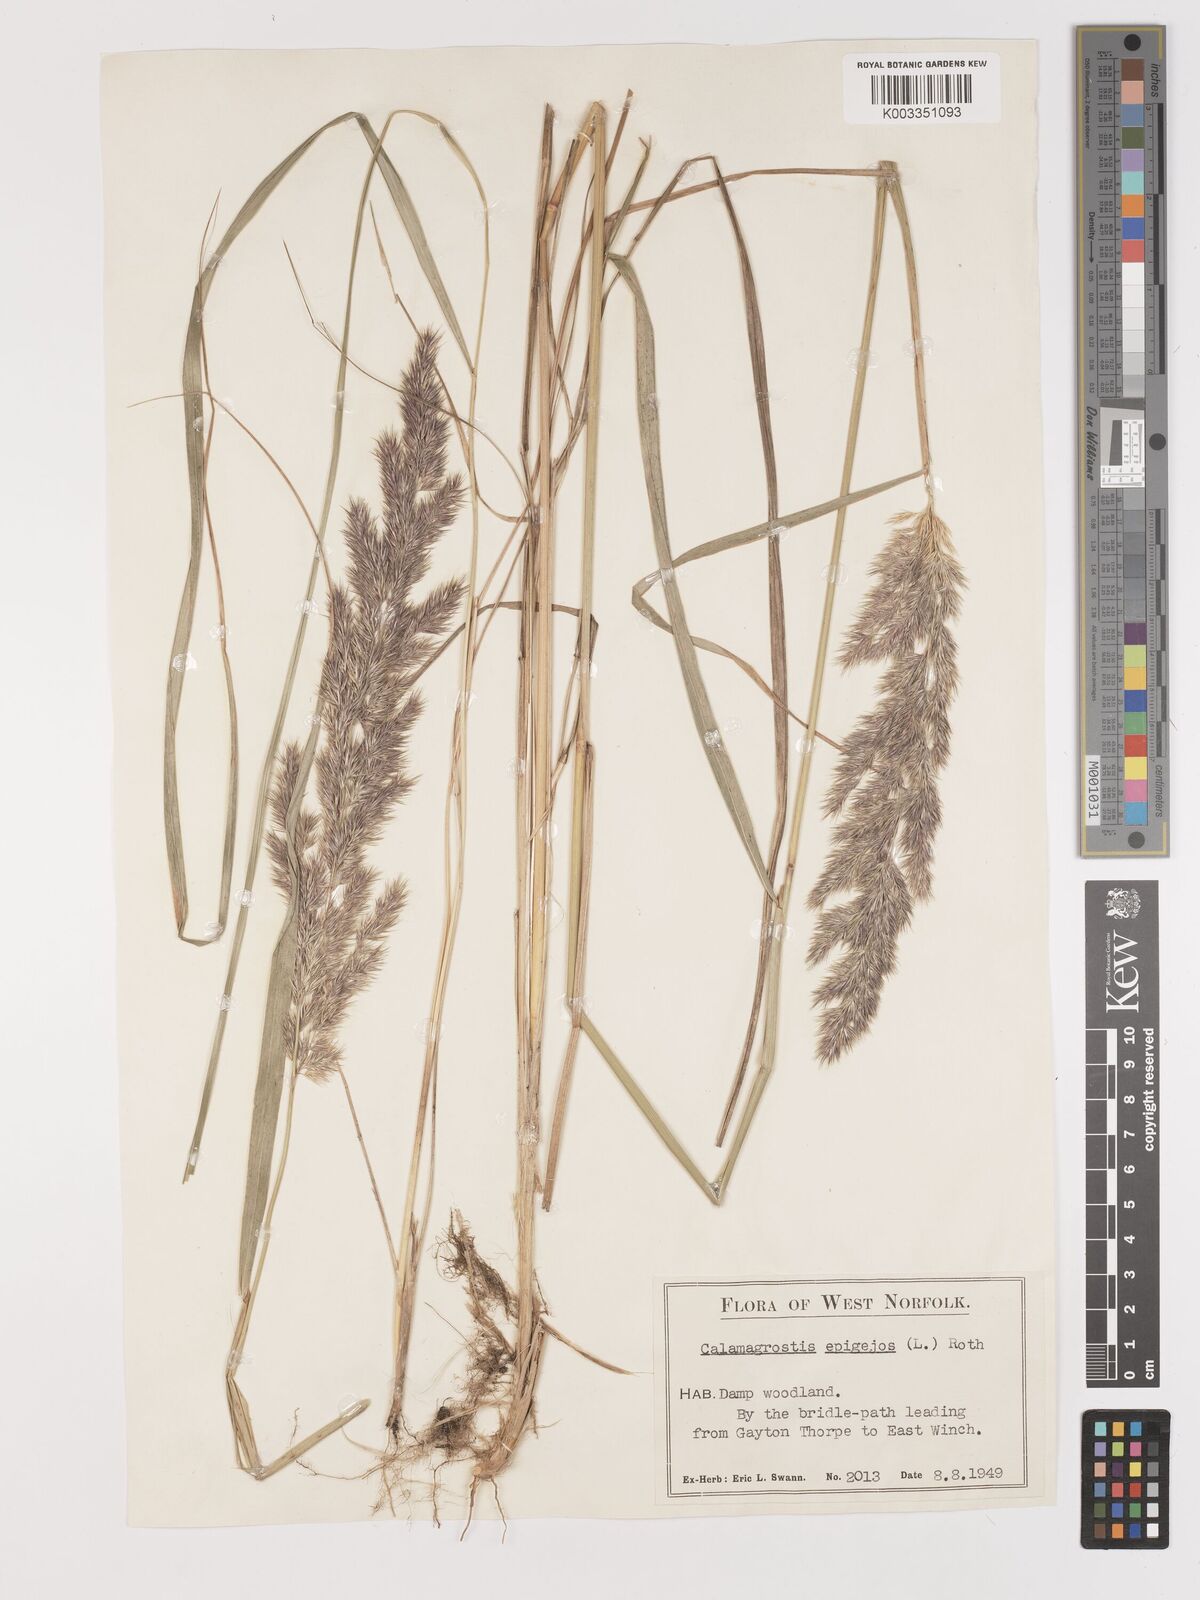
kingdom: Plantae
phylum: Tracheophyta
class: Liliopsida
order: Poales
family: Poaceae
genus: Calamagrostis
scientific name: Calamagrostis
